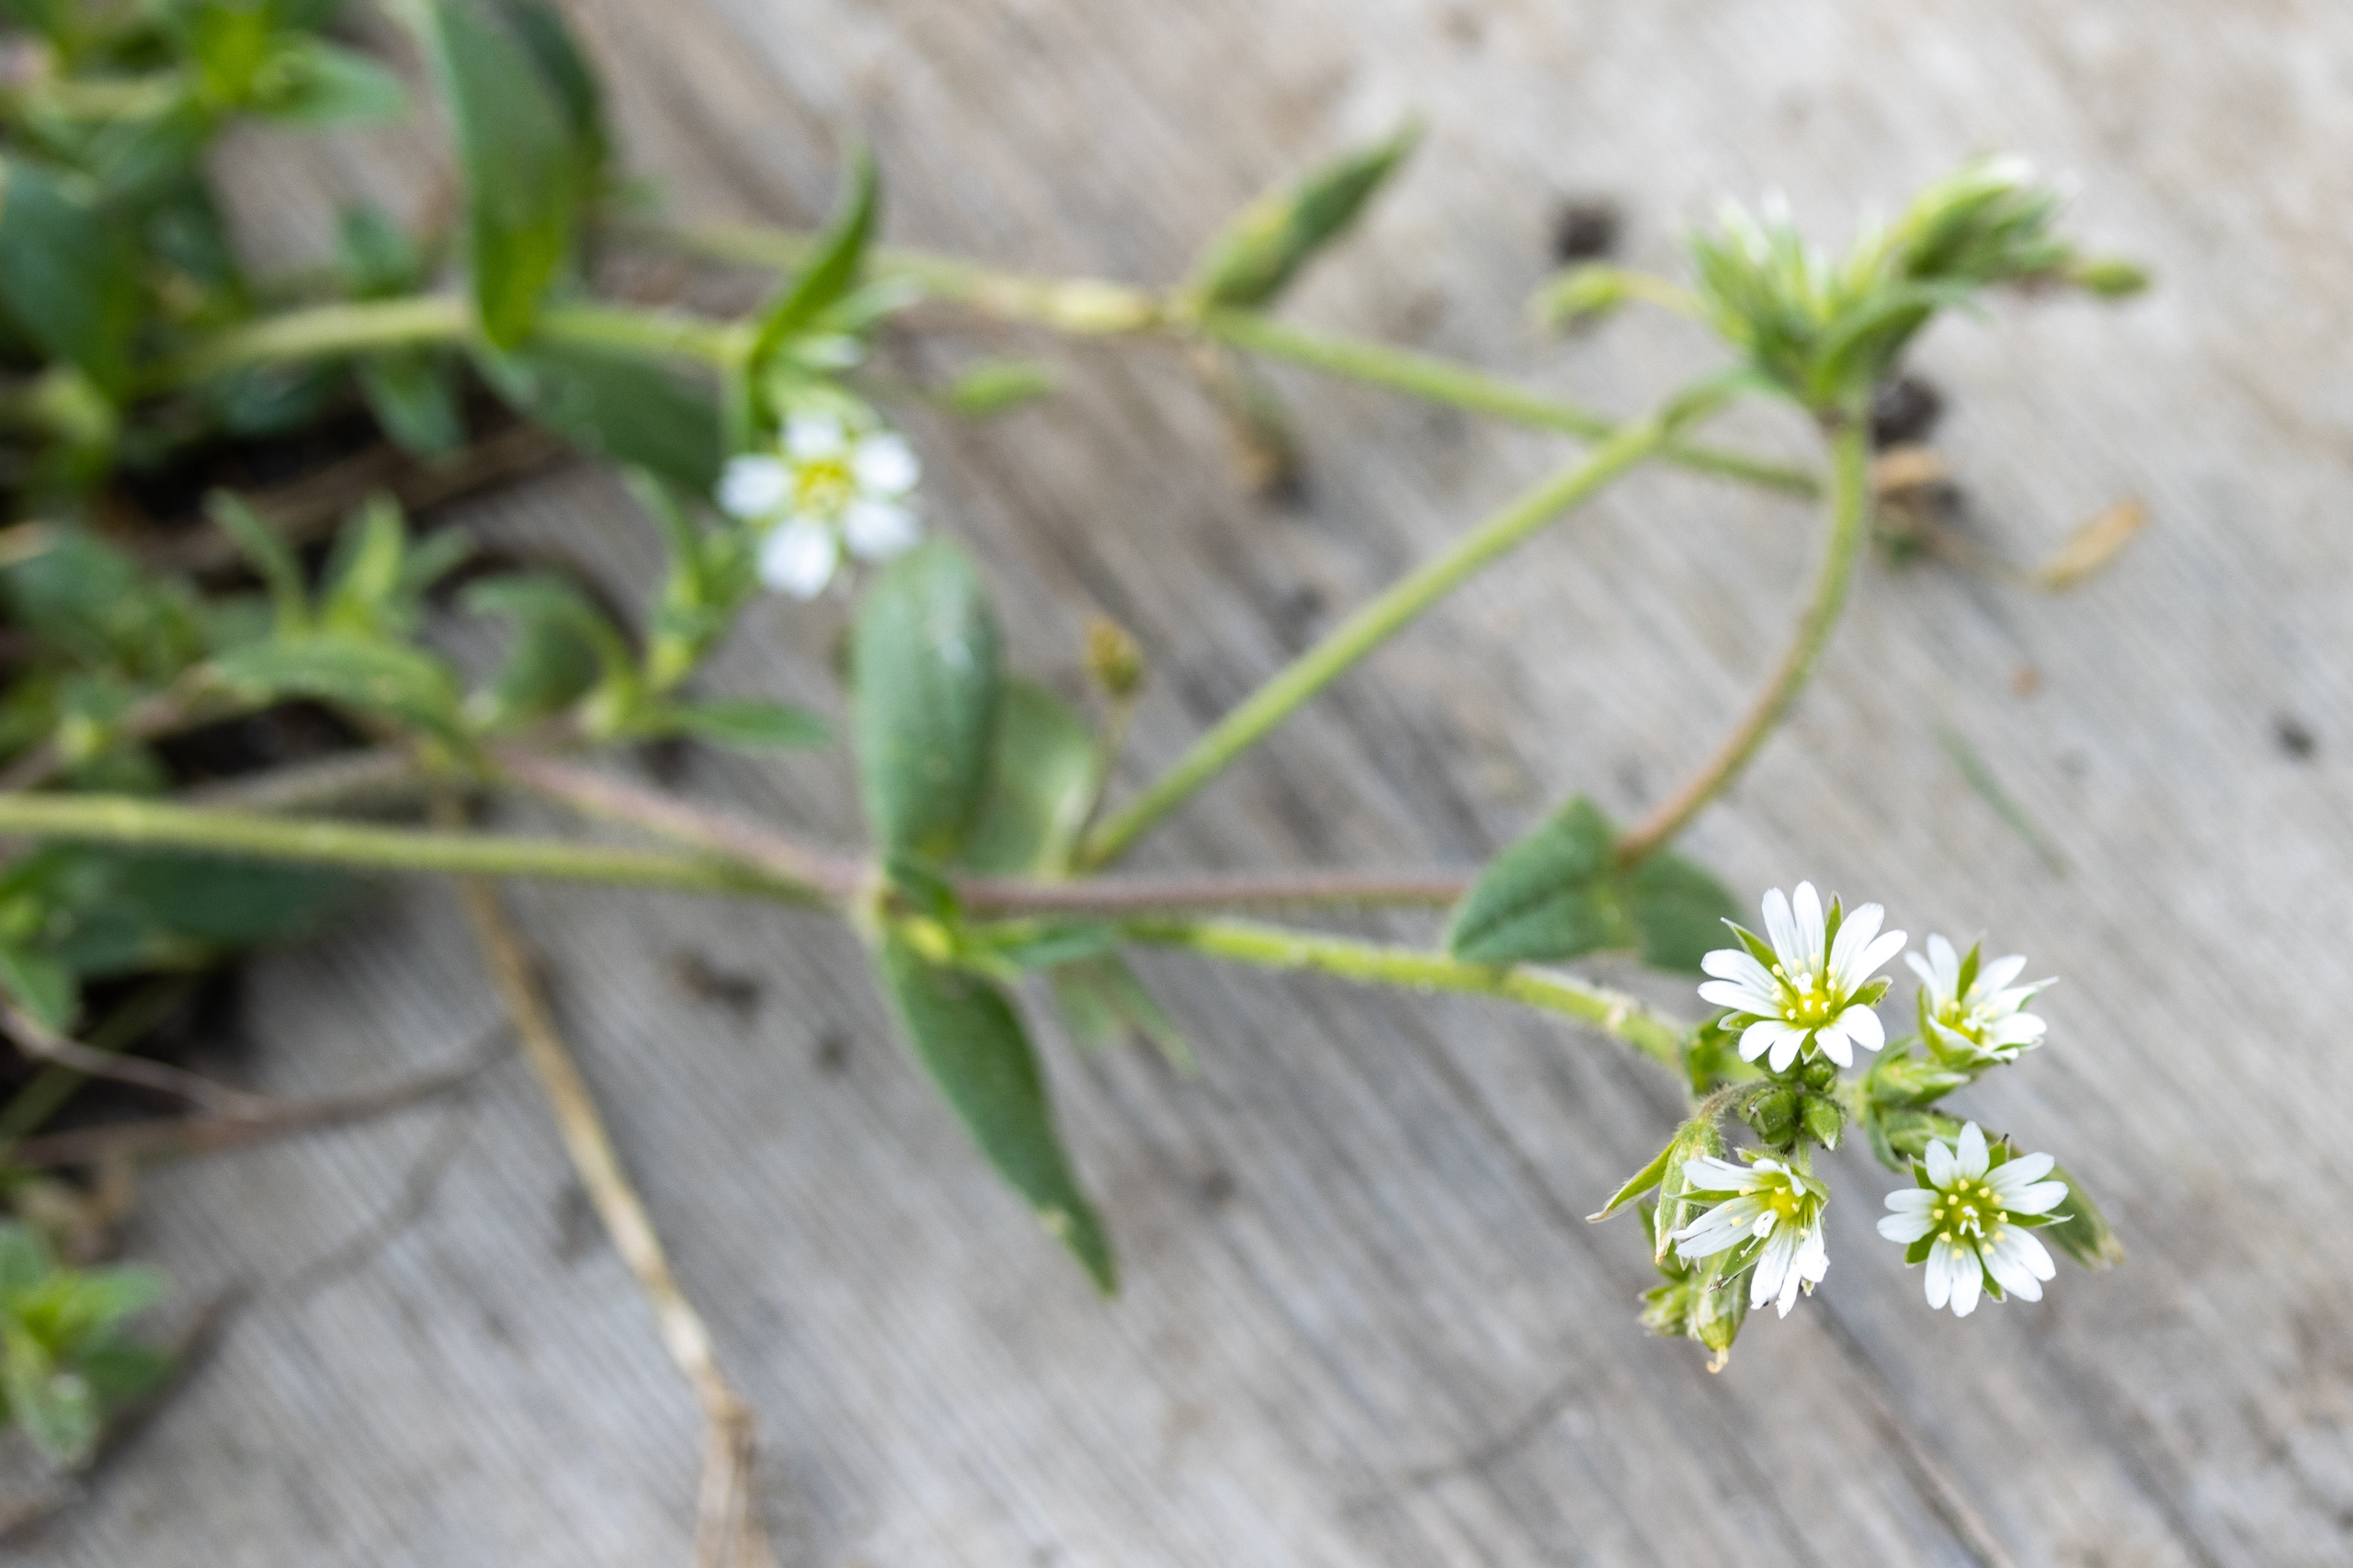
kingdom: Plantae
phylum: Tracheophyta
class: Magnoliopsida
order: Caryophyllales
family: Caryophyllaceae
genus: Cerastium
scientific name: Cerastium fontanum
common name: Almindelig hønsetarm
